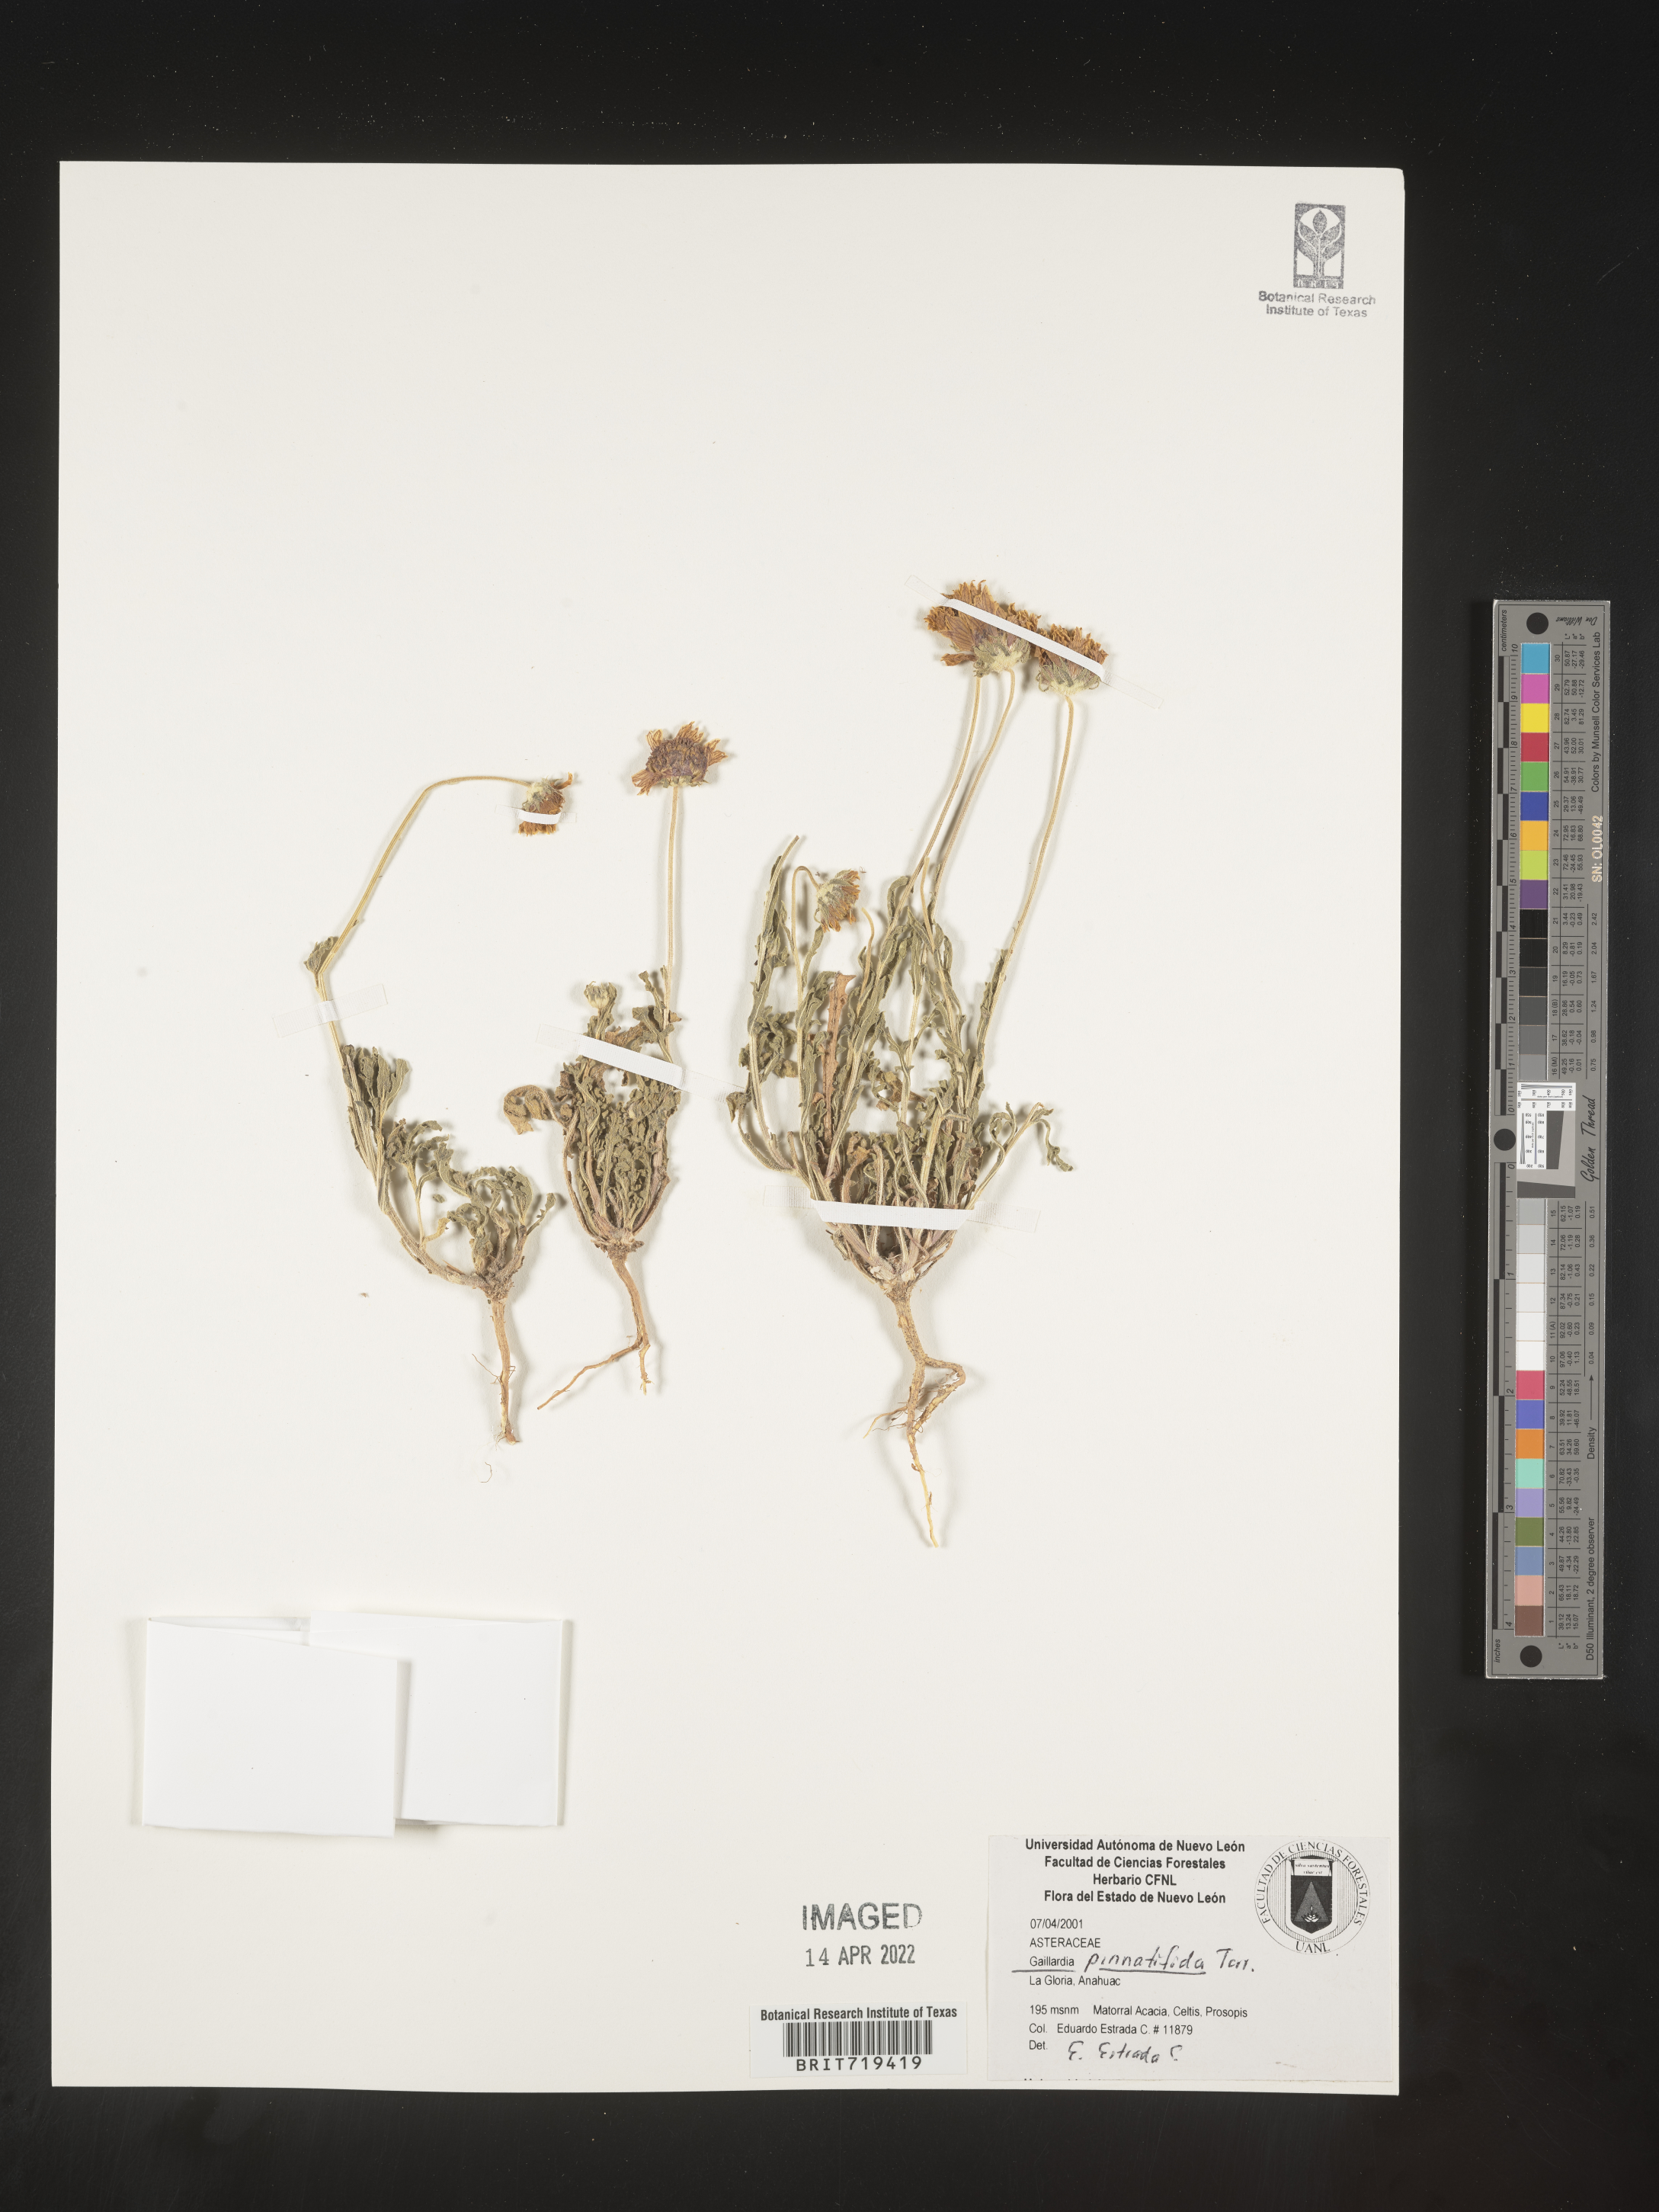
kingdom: Plantae
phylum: Tracheophyta
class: Magnoliopsida
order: Asterales
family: Asteraceae
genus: Gaillardia
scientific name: Gaillardia
